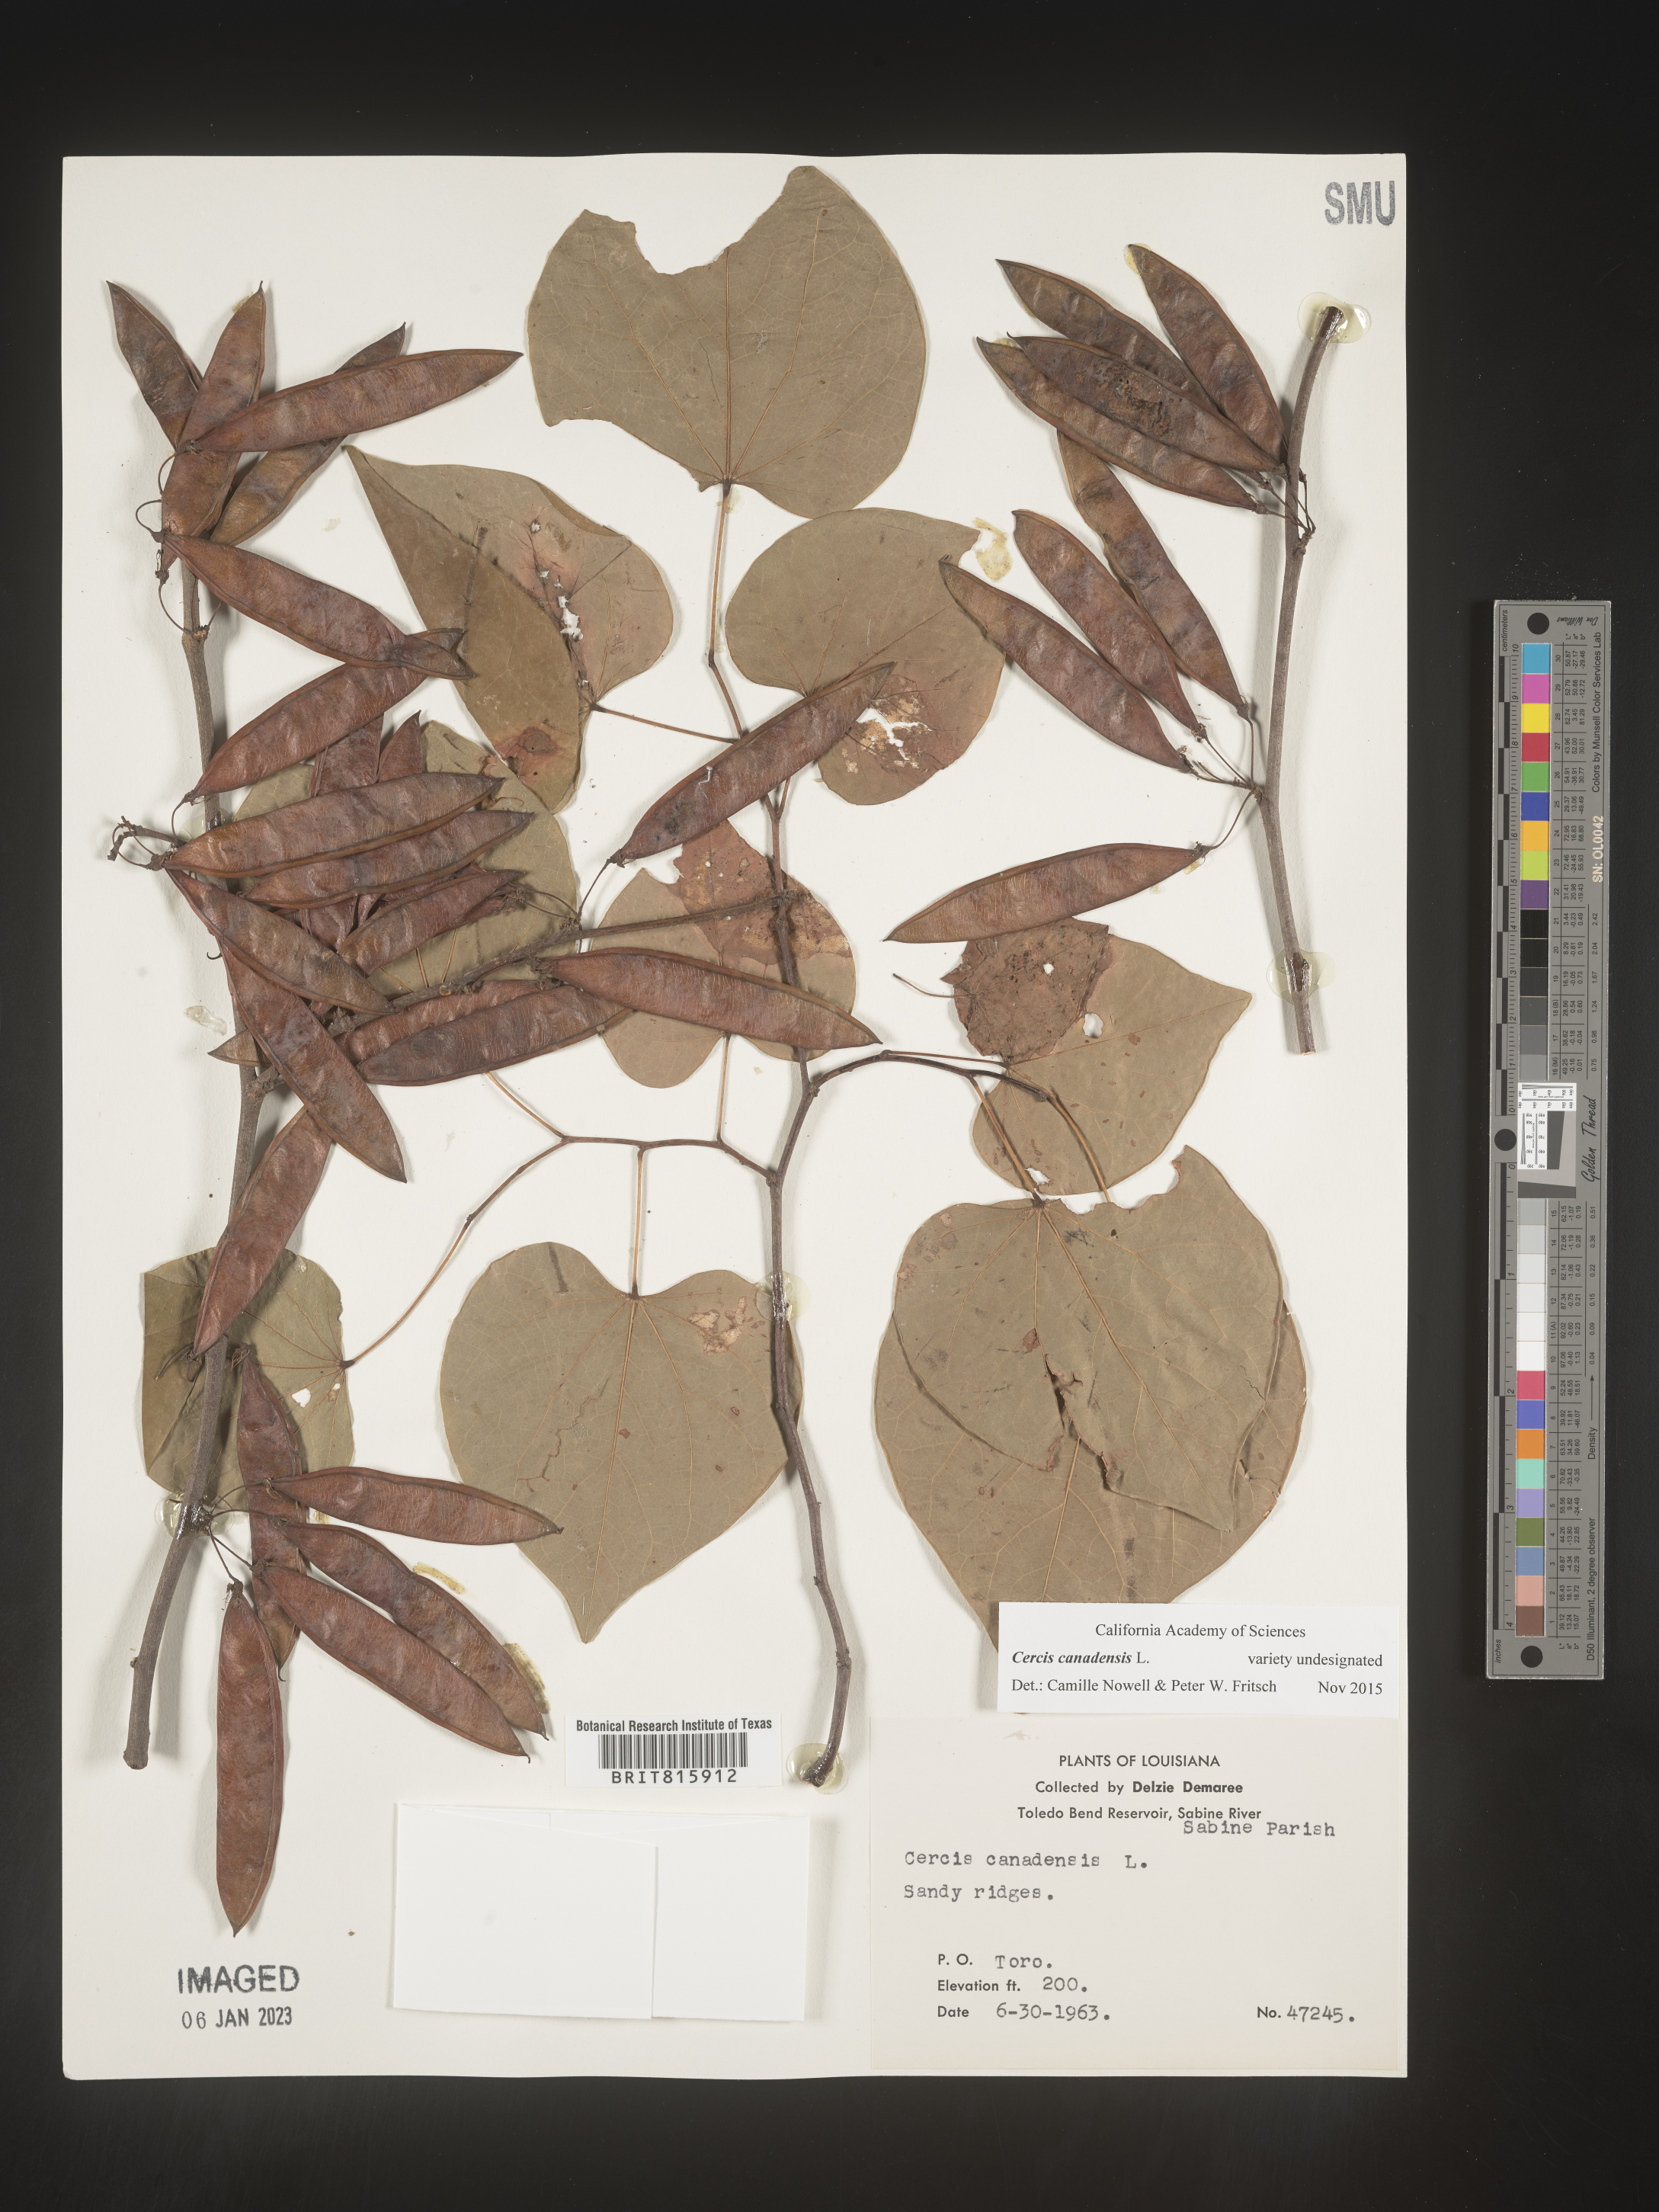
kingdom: Plantae
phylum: Tracheophyta
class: Magnoliopsida
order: Fabales
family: Fabaceae
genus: Cercis
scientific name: Cercis canadensis
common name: Eastern redbud
